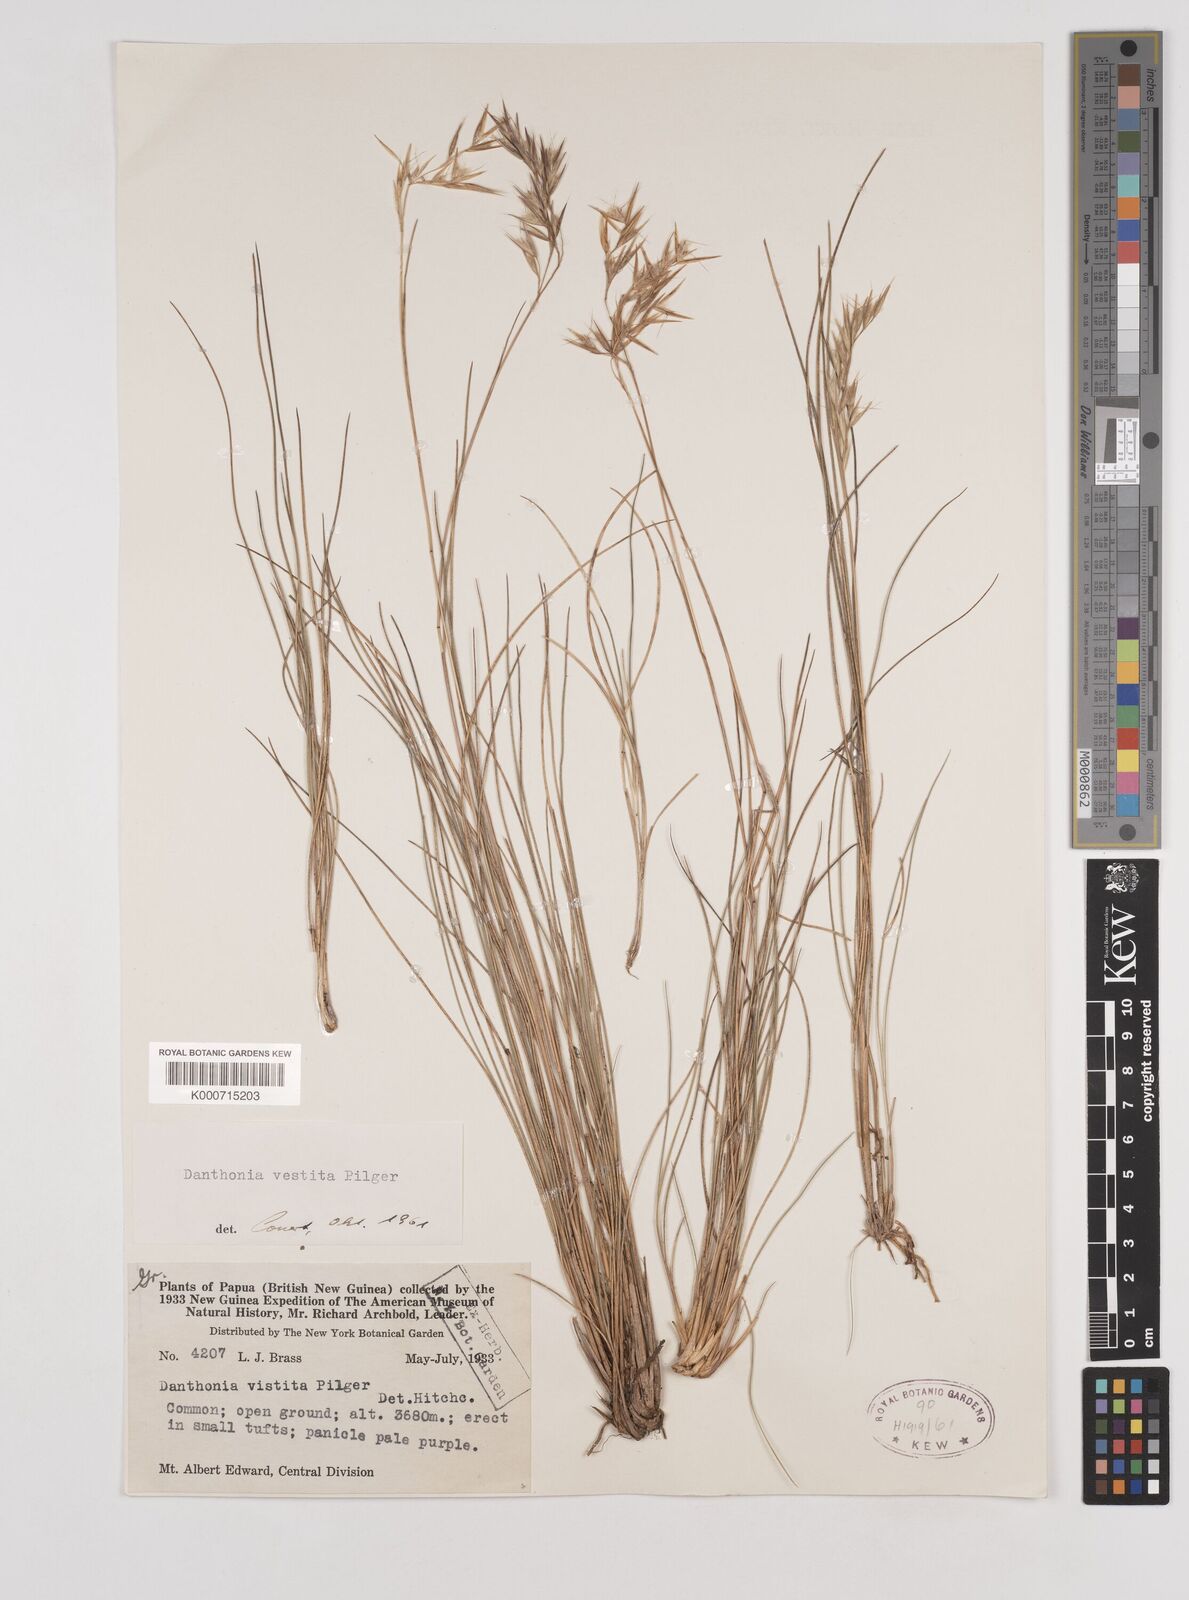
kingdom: Plantae
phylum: Tracheophyta
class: Liliopsida
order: Poales
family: Poaceae
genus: Rytidosperma
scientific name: Rytidosperma vestitum
